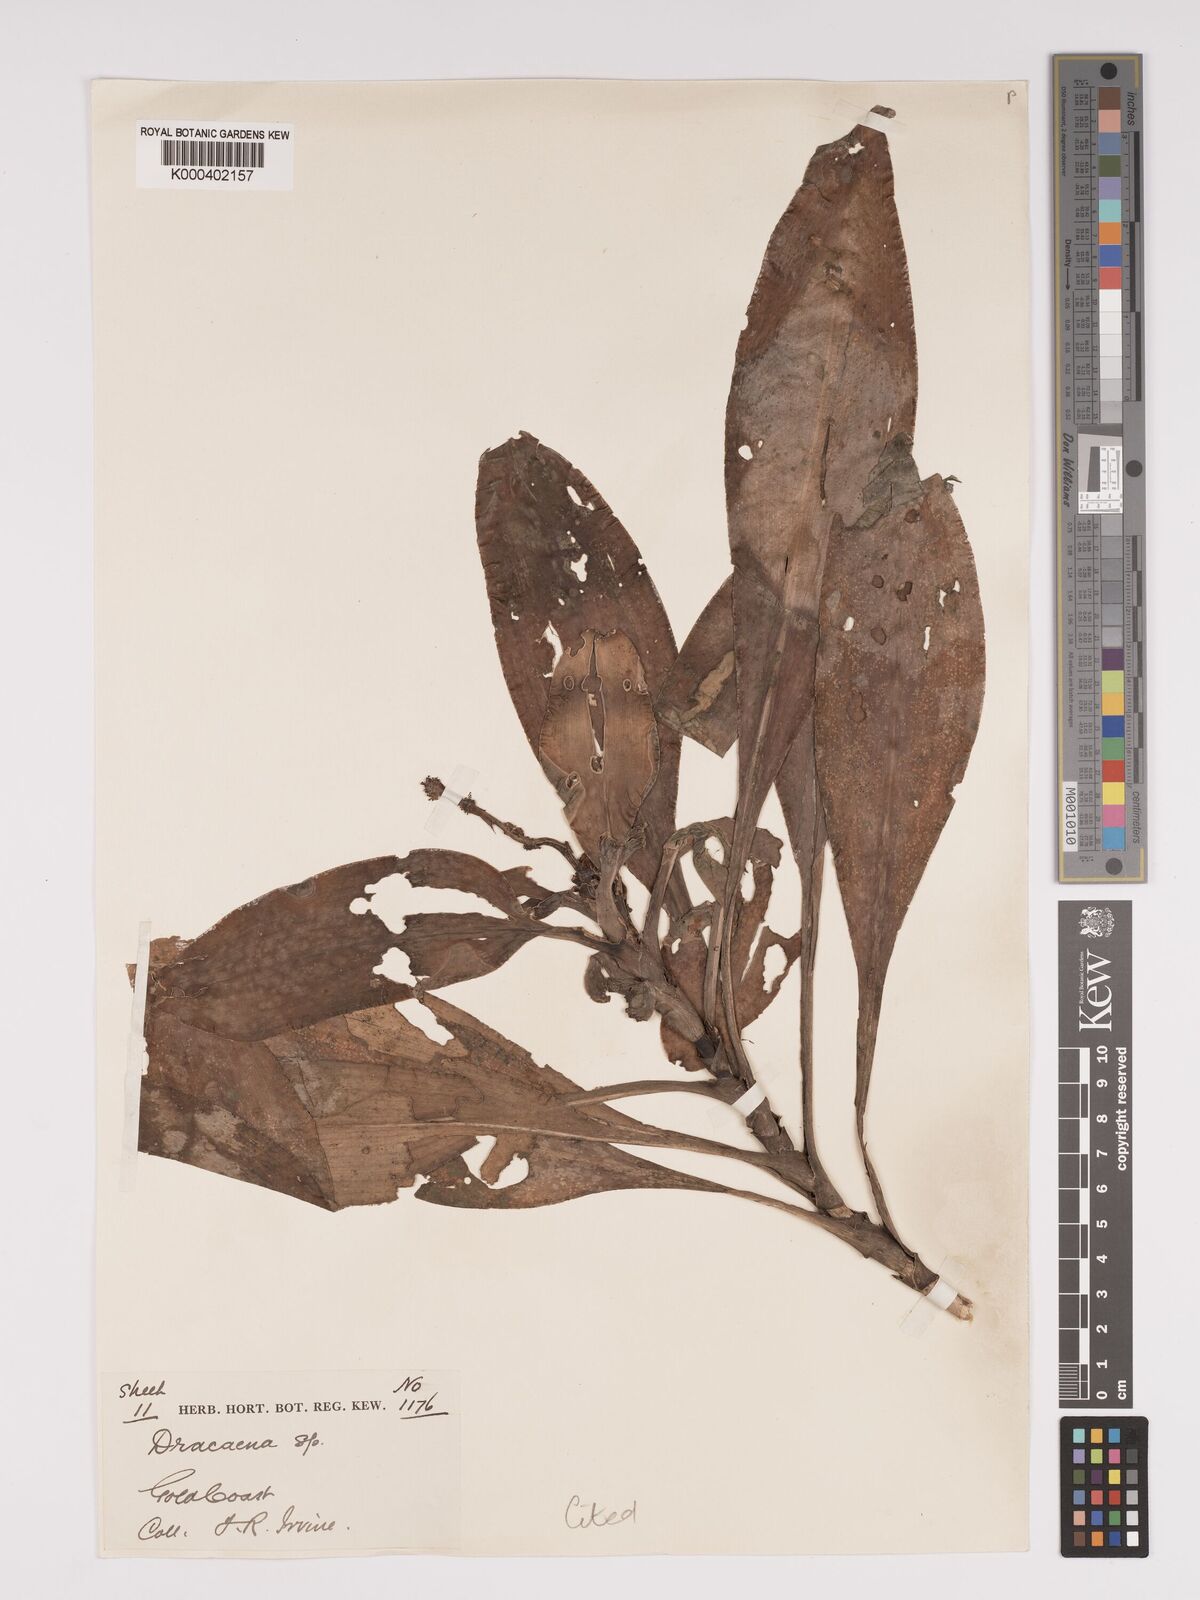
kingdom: Plantae
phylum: Tracheophyta
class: Liliopsida
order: Asparagales
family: Asparagaceae
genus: Dracaena
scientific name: Dracaena congoensis
